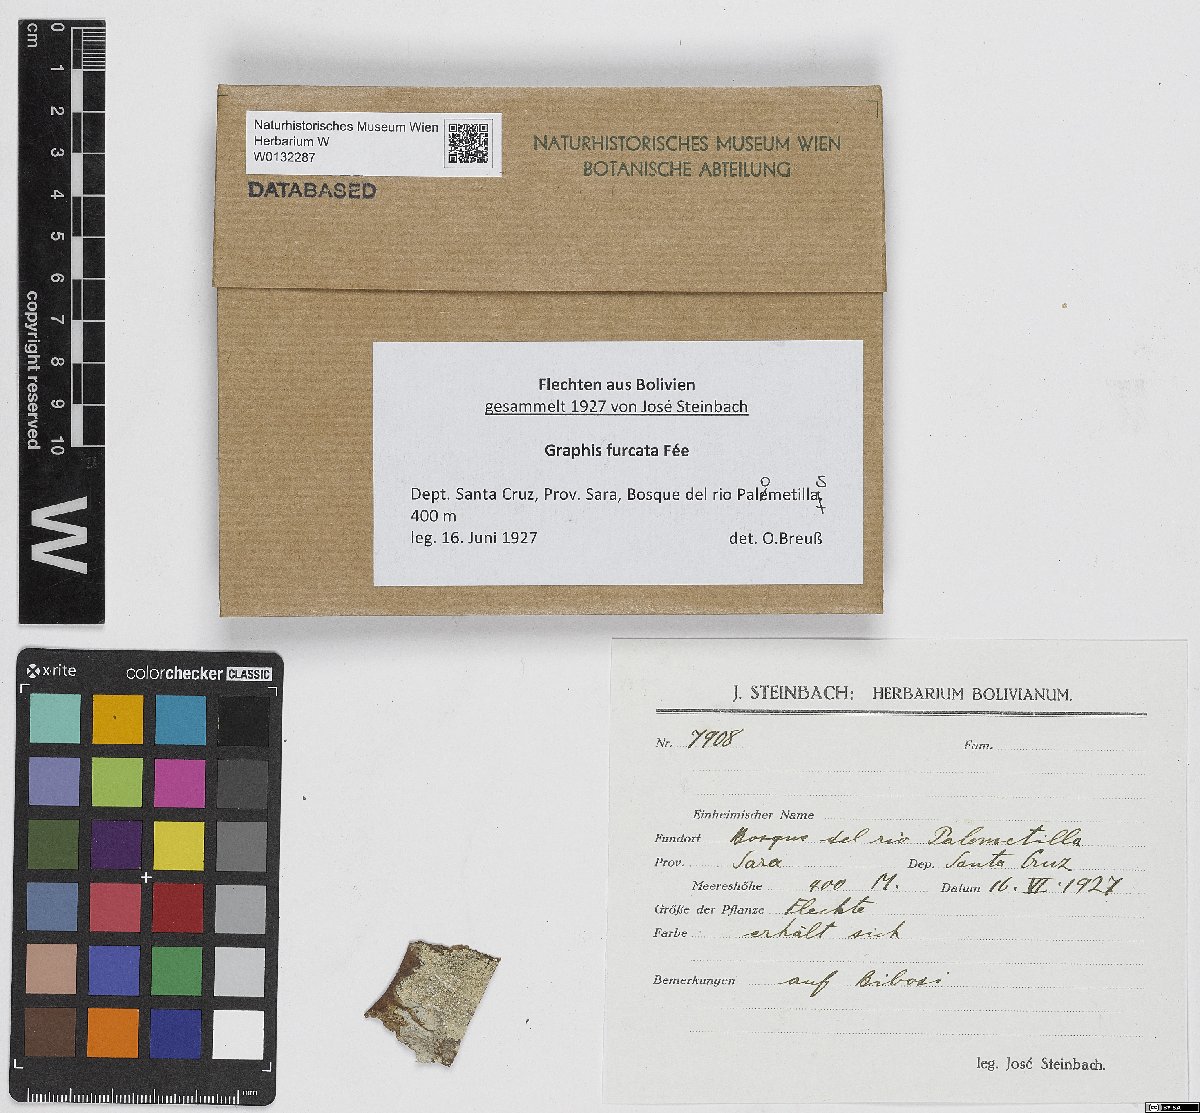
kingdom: Fungi
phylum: Ascomycota
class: Lecanoromycetes
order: Ostropales
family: Graphidaceae
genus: Graphis
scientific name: Graphis furcata
